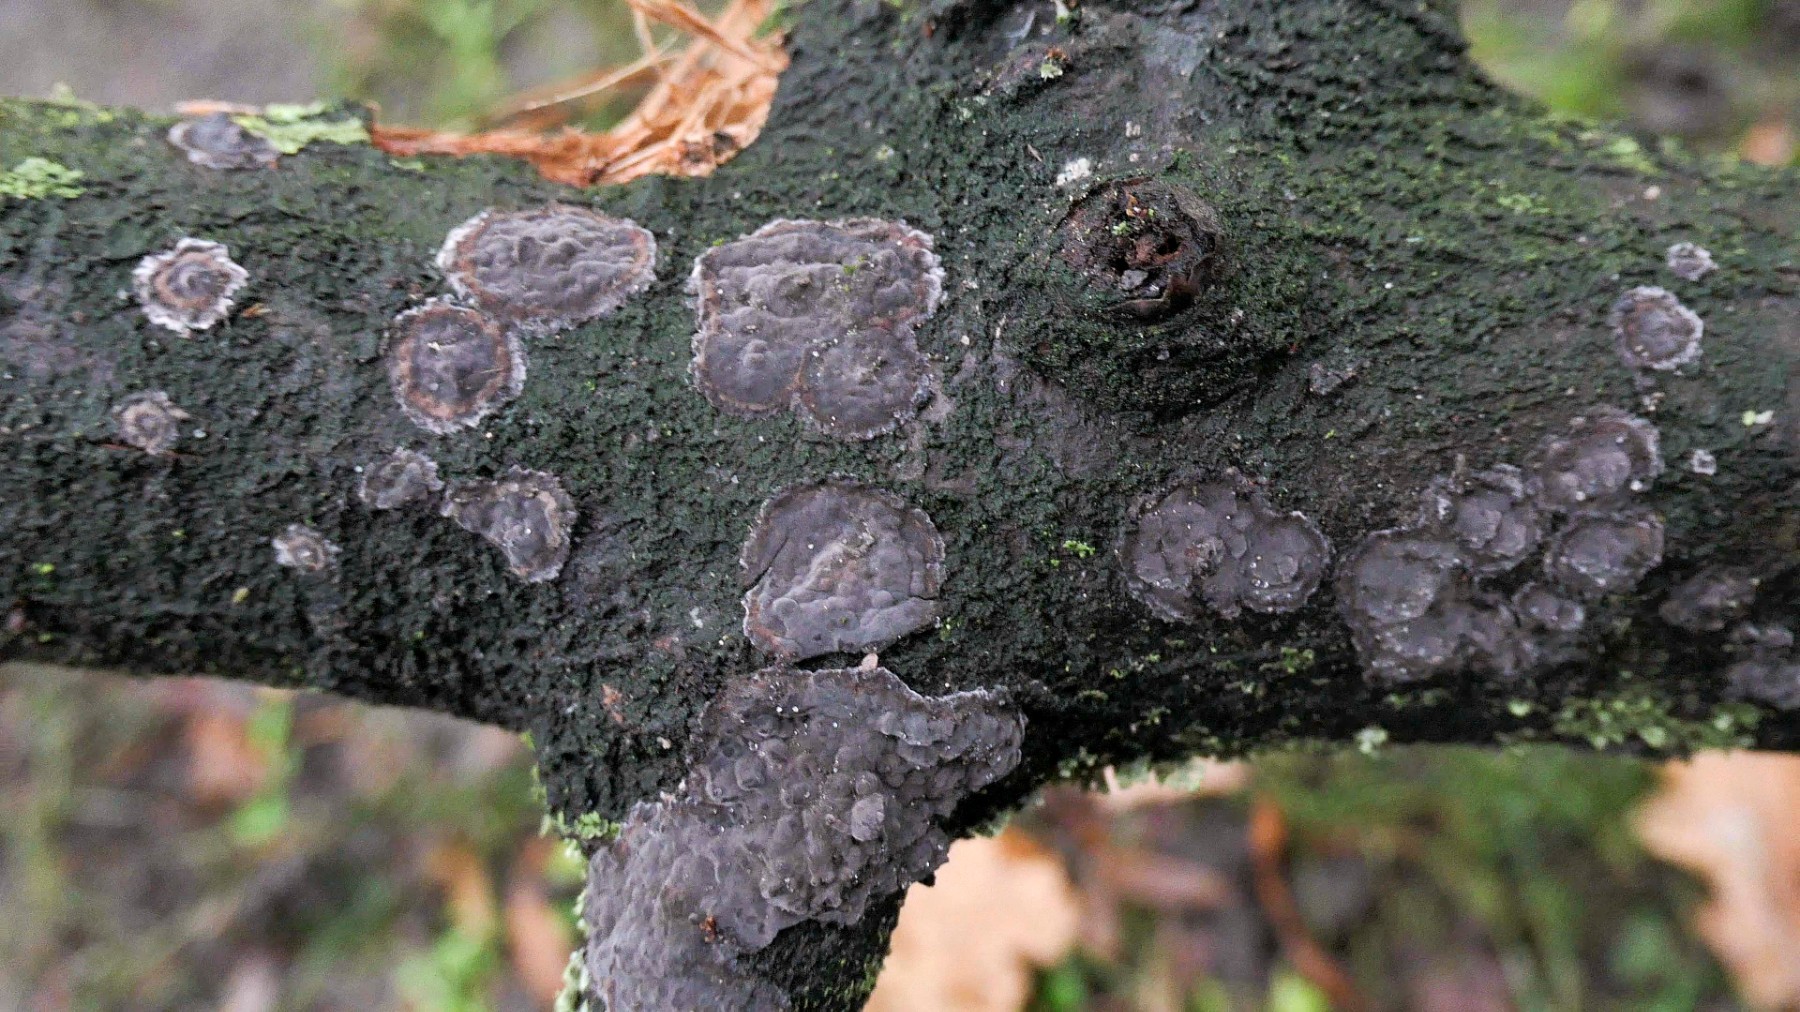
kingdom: Fungi
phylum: Basidiomycota
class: Agaricomycetes
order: Russulales
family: Peniophoraceae
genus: Peniophora
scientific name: Peniophora rufomarginata
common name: linde-voksskind
